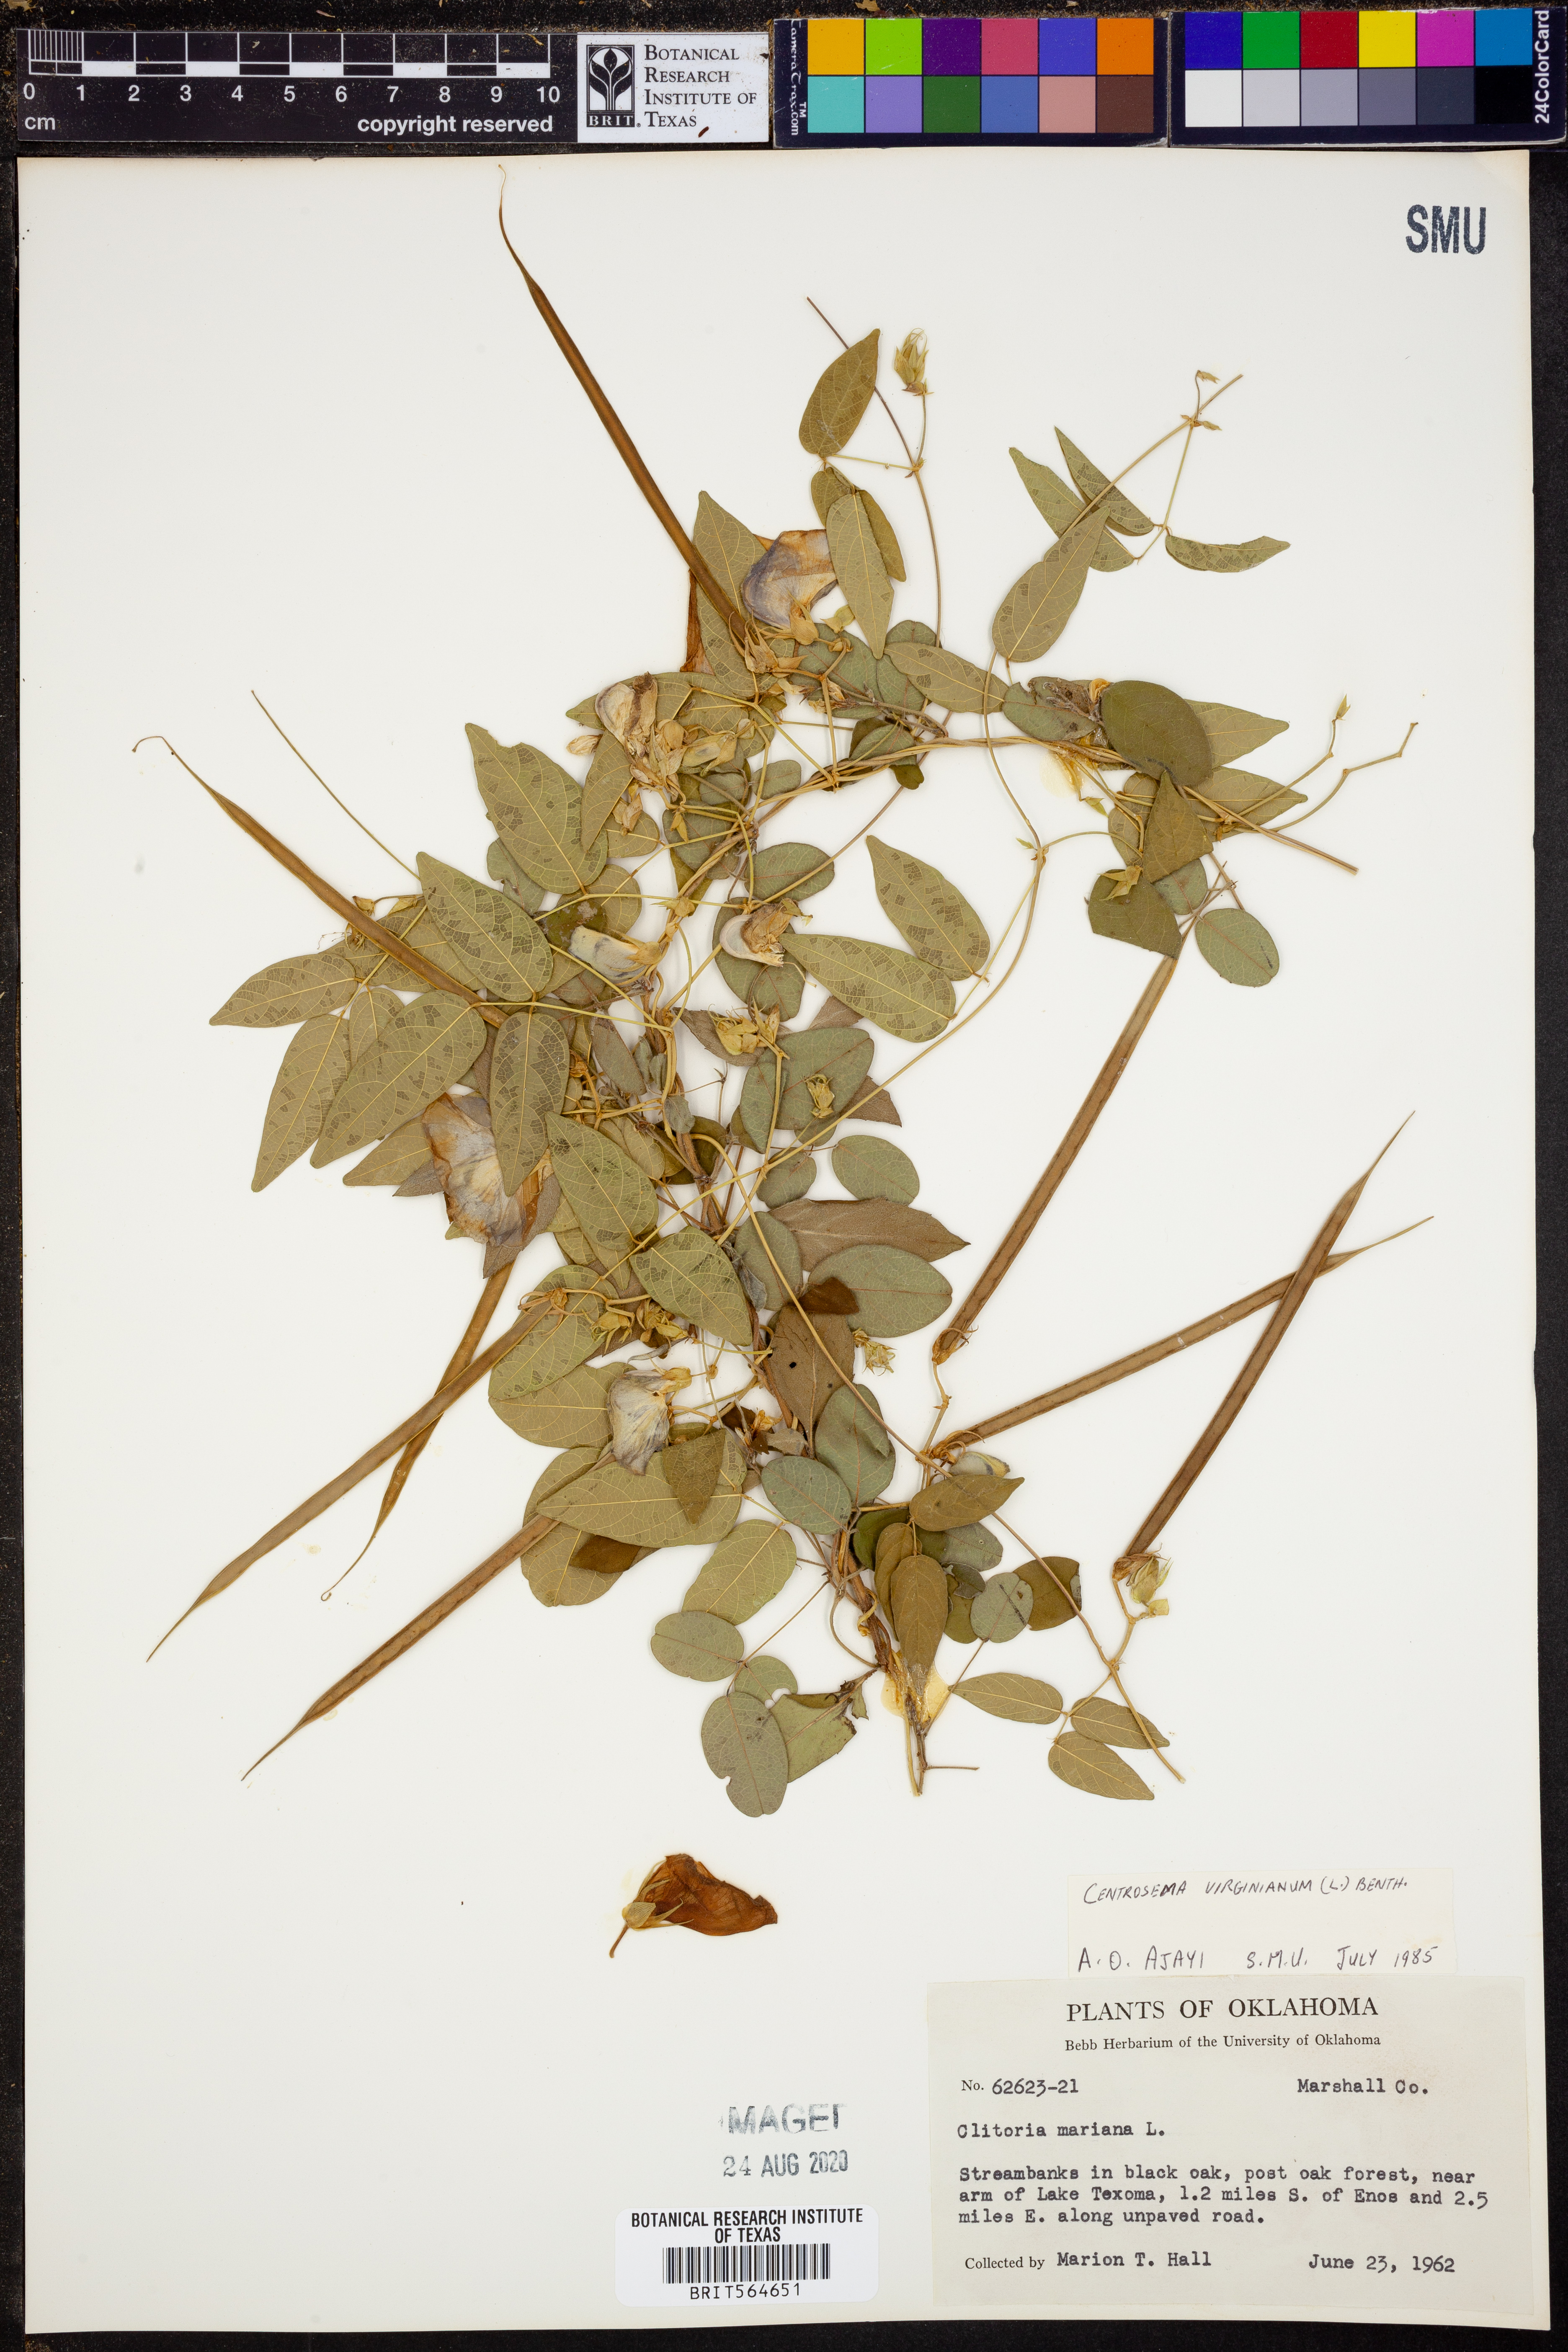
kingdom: Plantae
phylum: Tracheophyta
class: Magnoliopsida
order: Fabales
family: Fabaceae
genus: Centrosema
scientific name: Centrosema virginianum
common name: Butterfly-pea
